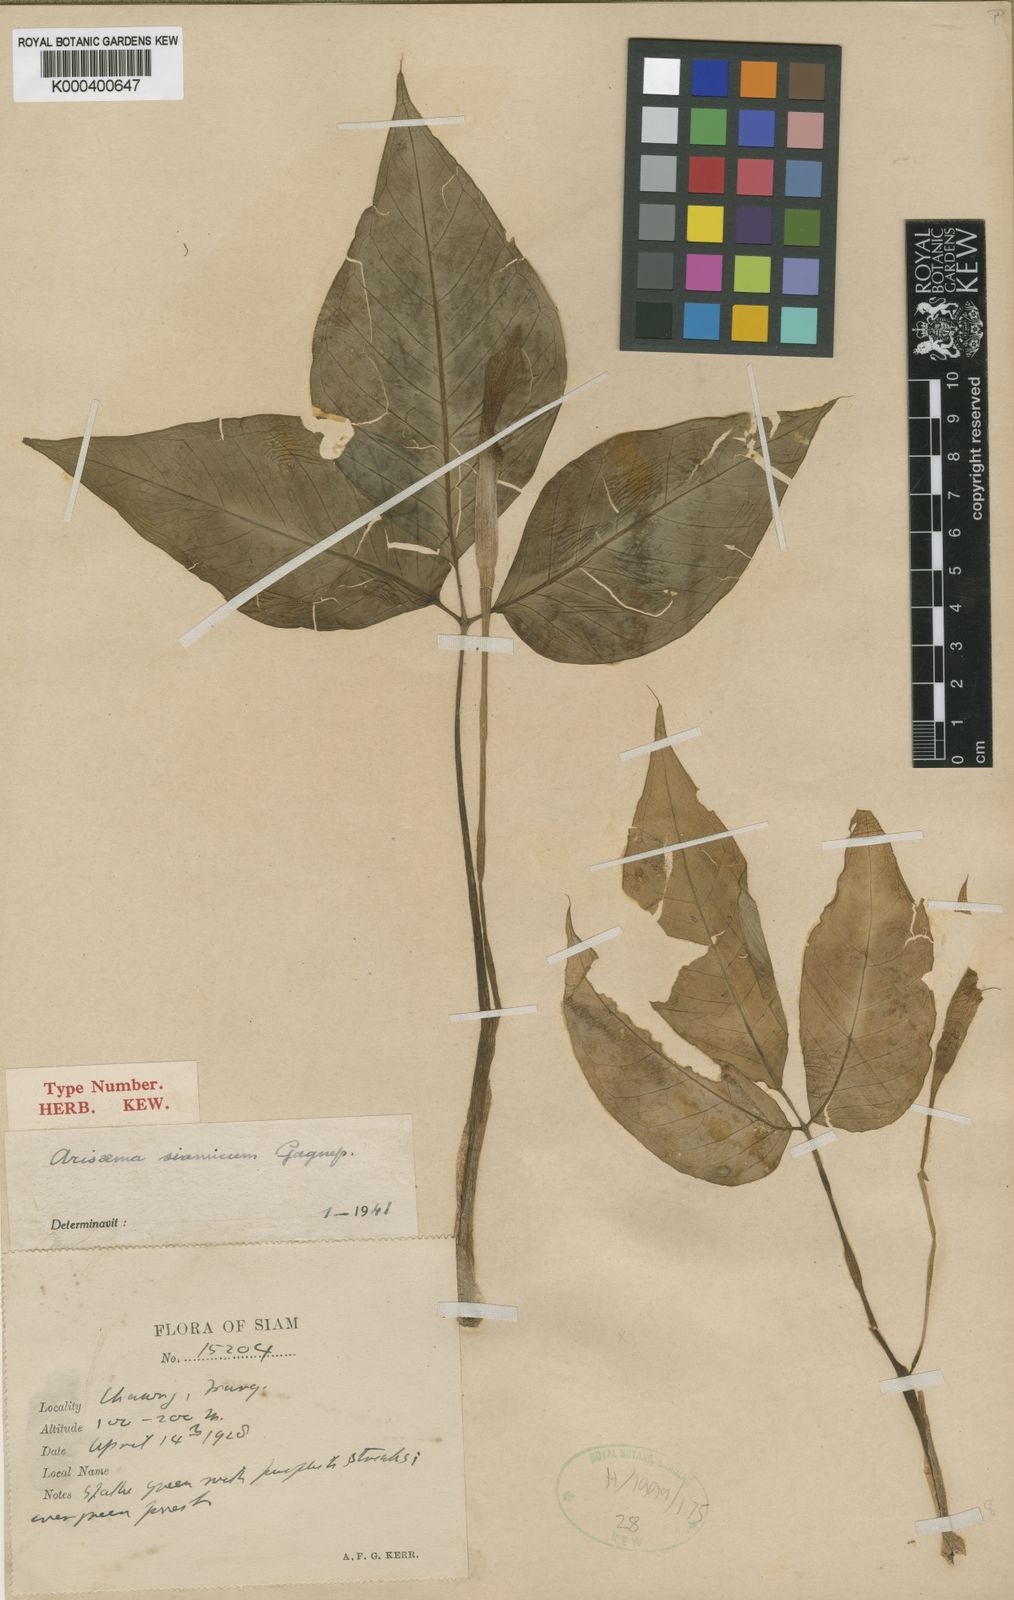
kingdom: Plantae
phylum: Tracheophyta
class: Liliopsida
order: Alismatales
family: Araceae
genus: Arisaema
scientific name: Arisaema siamicum
